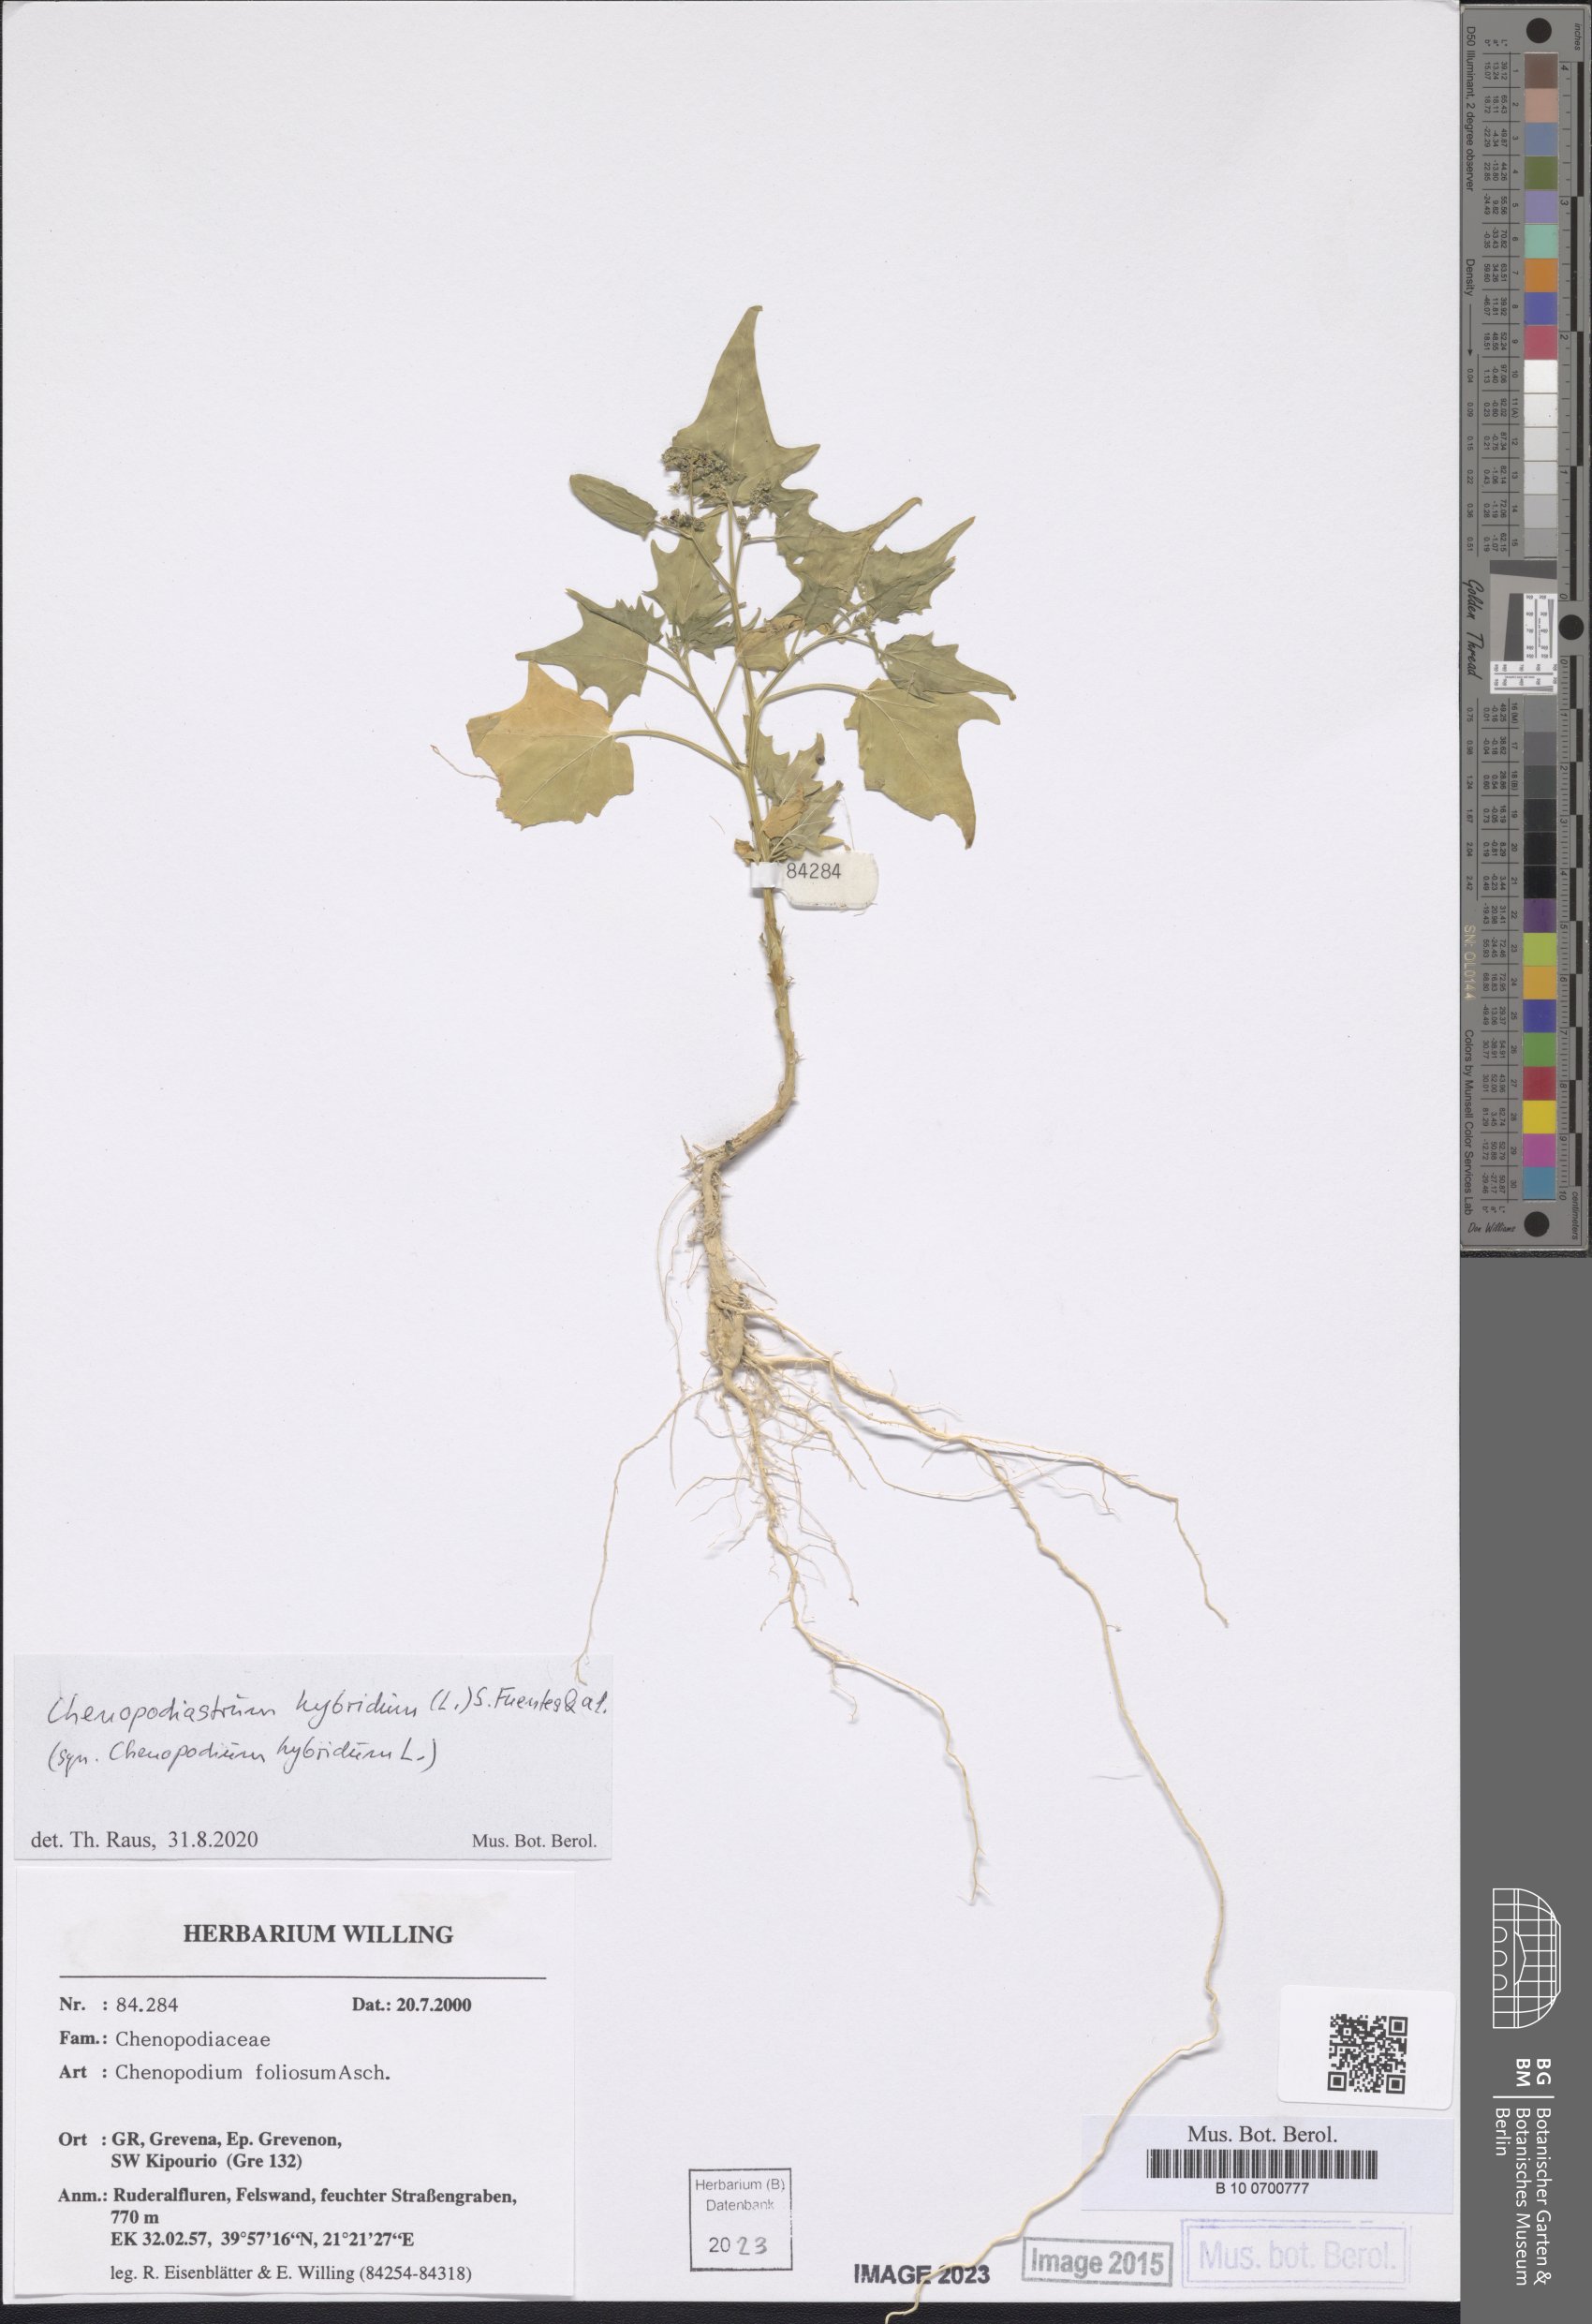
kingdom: Plantae
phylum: Tracheophyta
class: Magnoliopsida
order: Caryophyllales
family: Amaranthaceae
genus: Chenopodiastrum
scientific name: Chenopodiastrum hybridum
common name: Mapleleaf goosefoot
